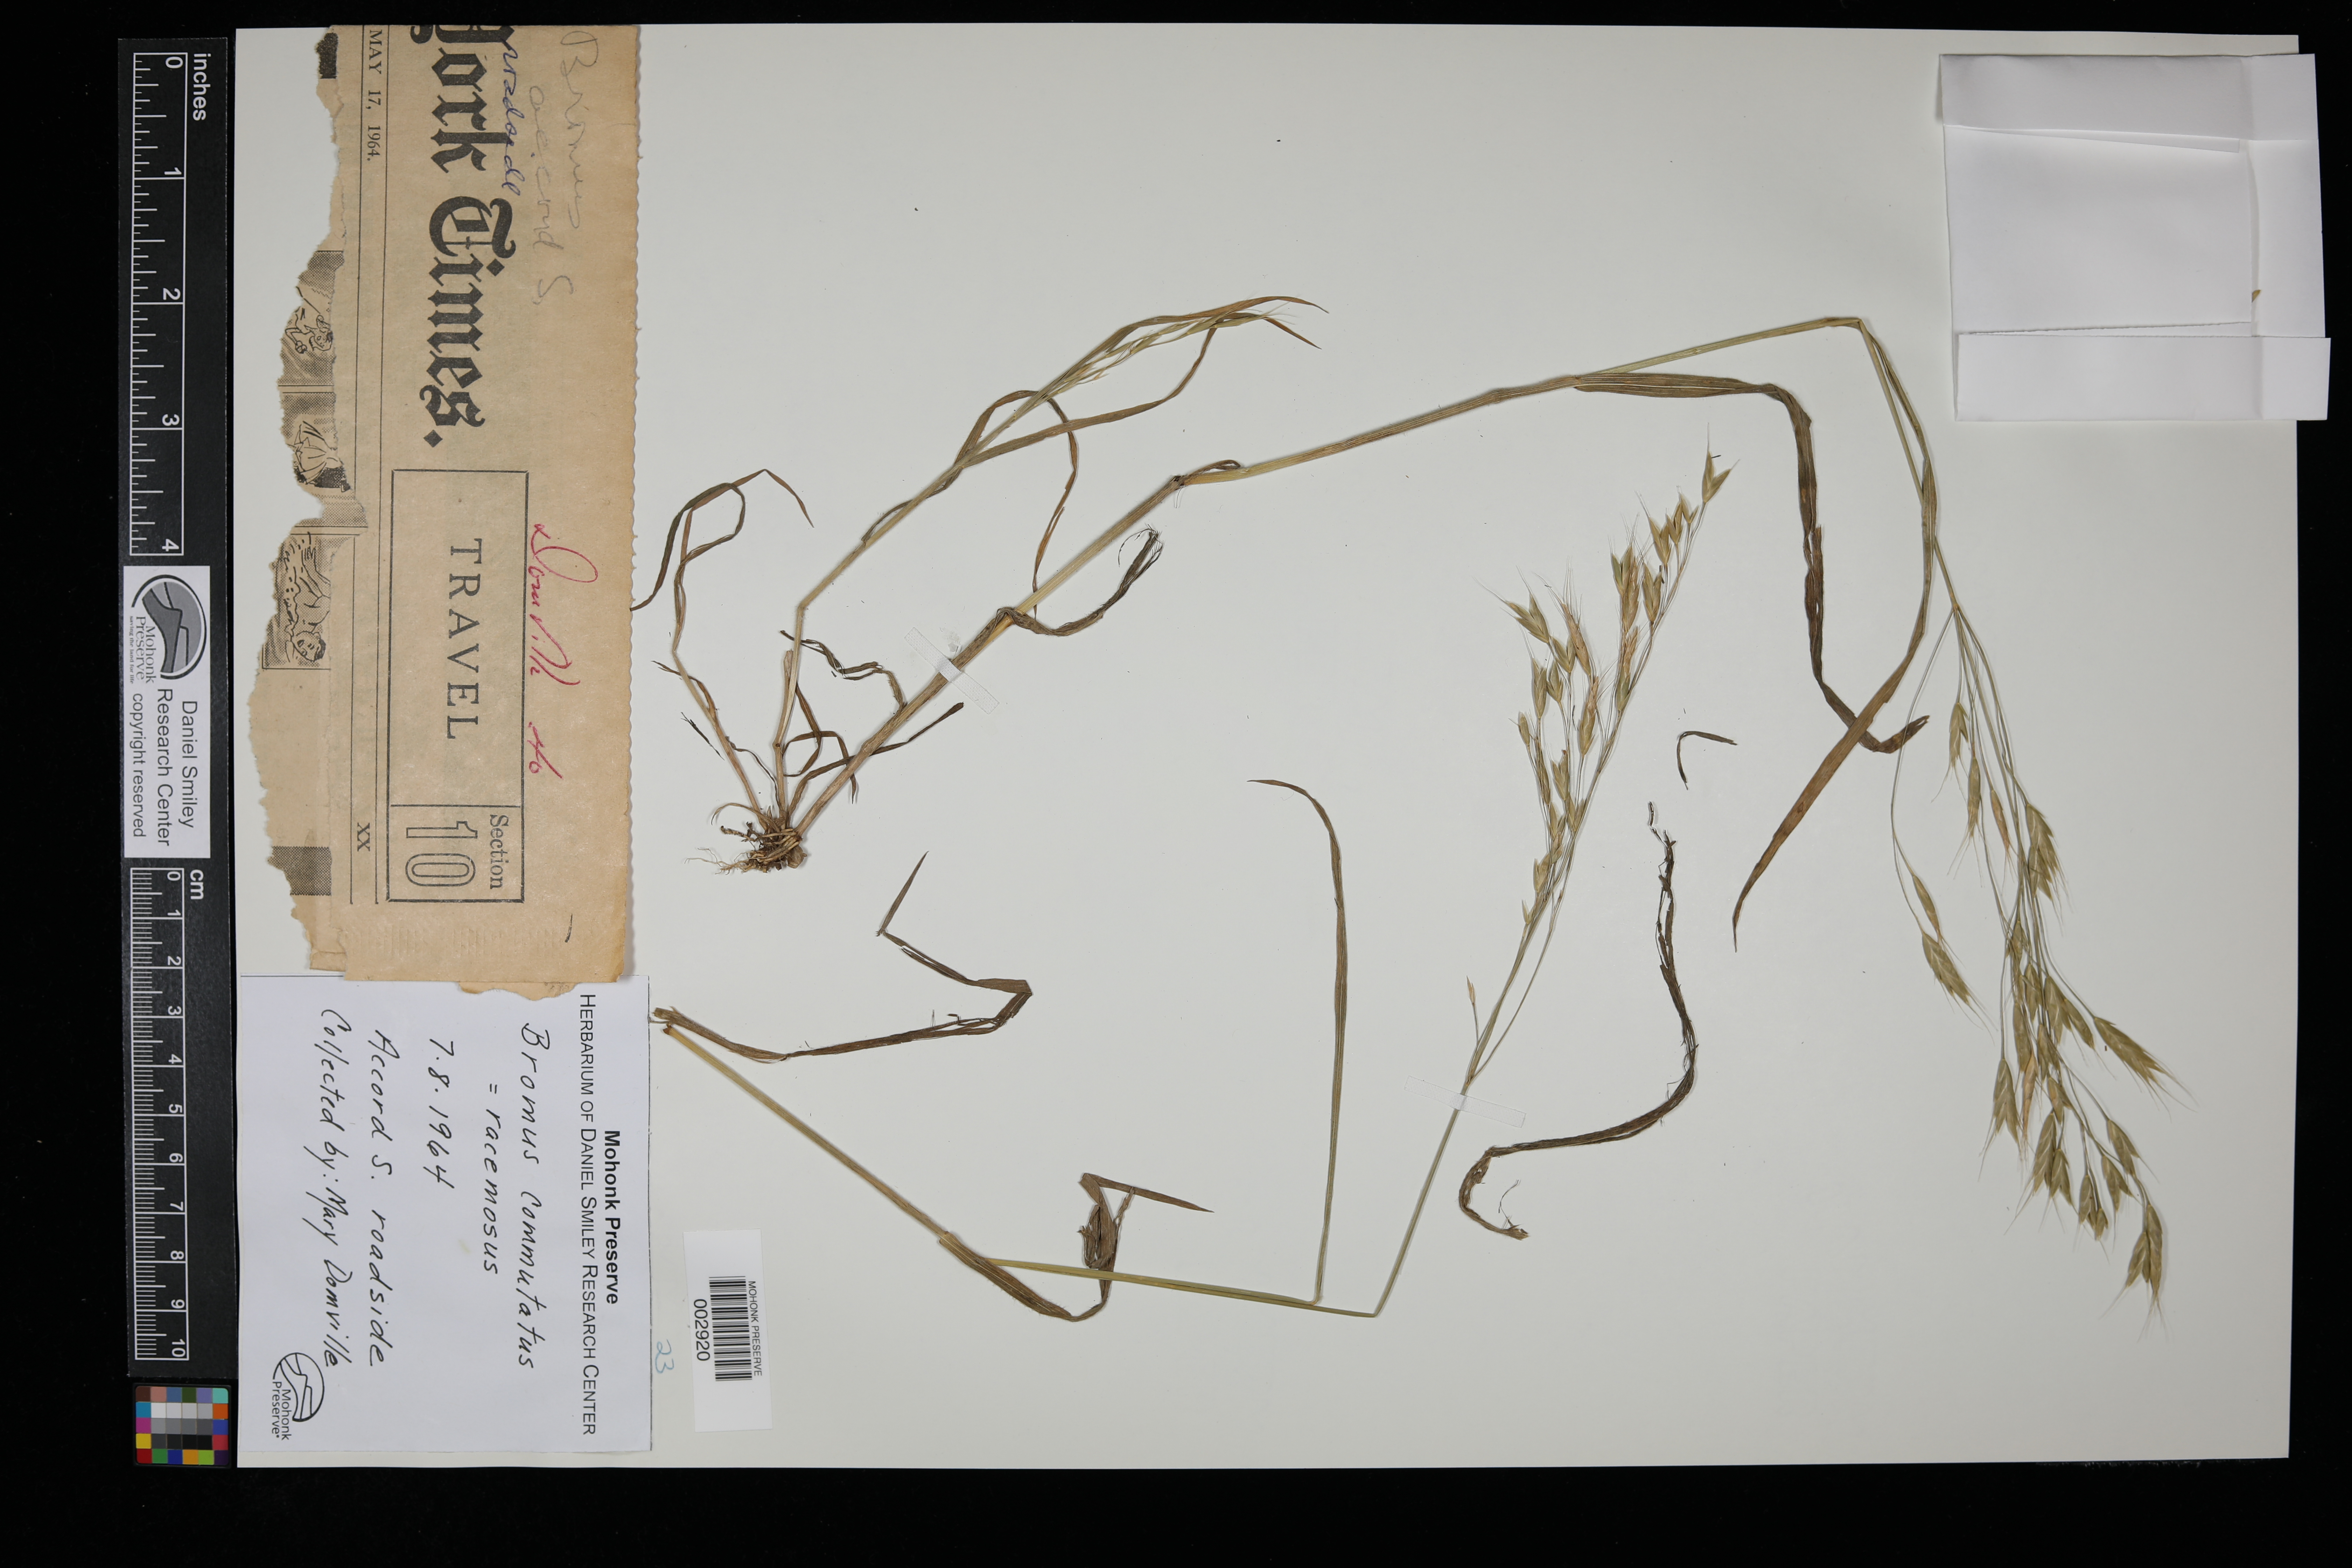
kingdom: Plantae
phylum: Tracheophyta
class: Liliopsida
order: Poales
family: Poaceae
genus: Bromus
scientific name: Bromus commutatus
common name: Meadow brome
